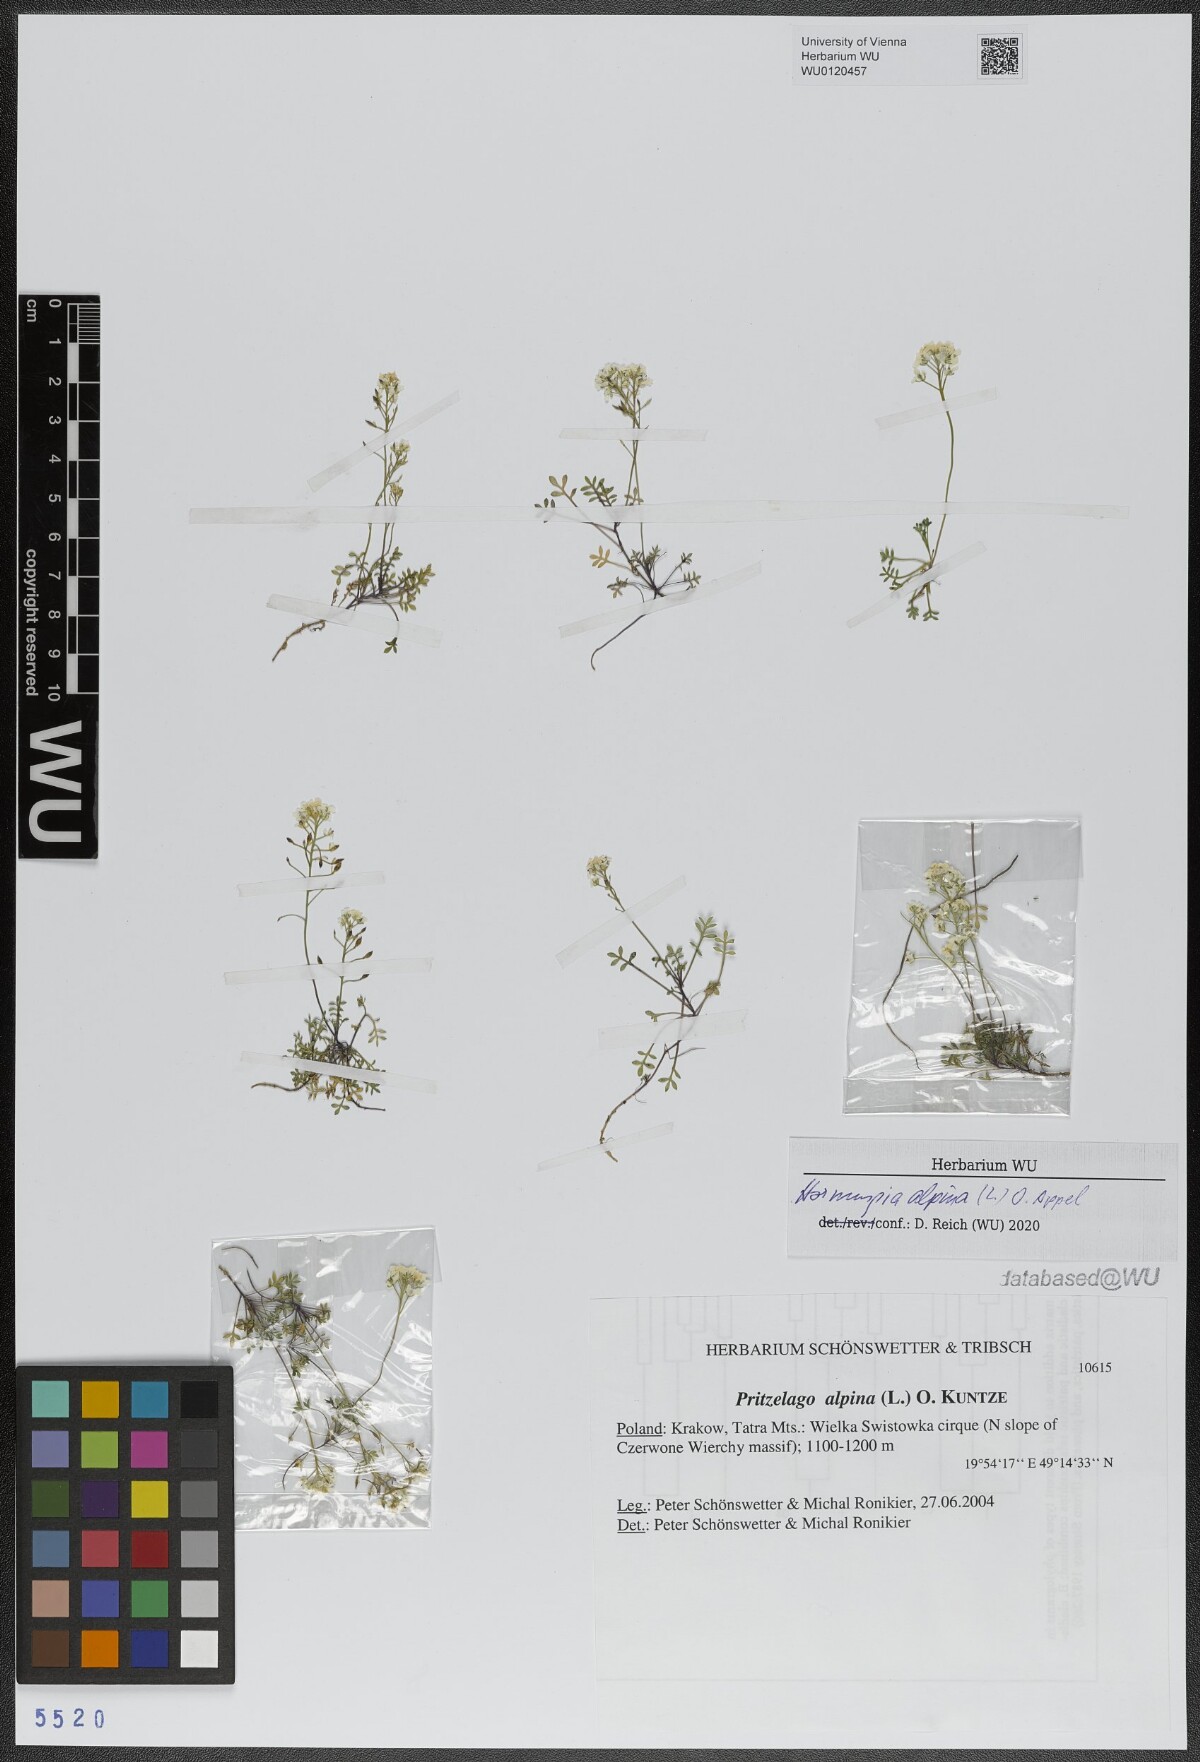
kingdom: Plantae
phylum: Tracheophyta
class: Magnoliopsida
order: Brassicales
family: Brassicaceae
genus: Hornungia
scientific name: Hornungia alpina
